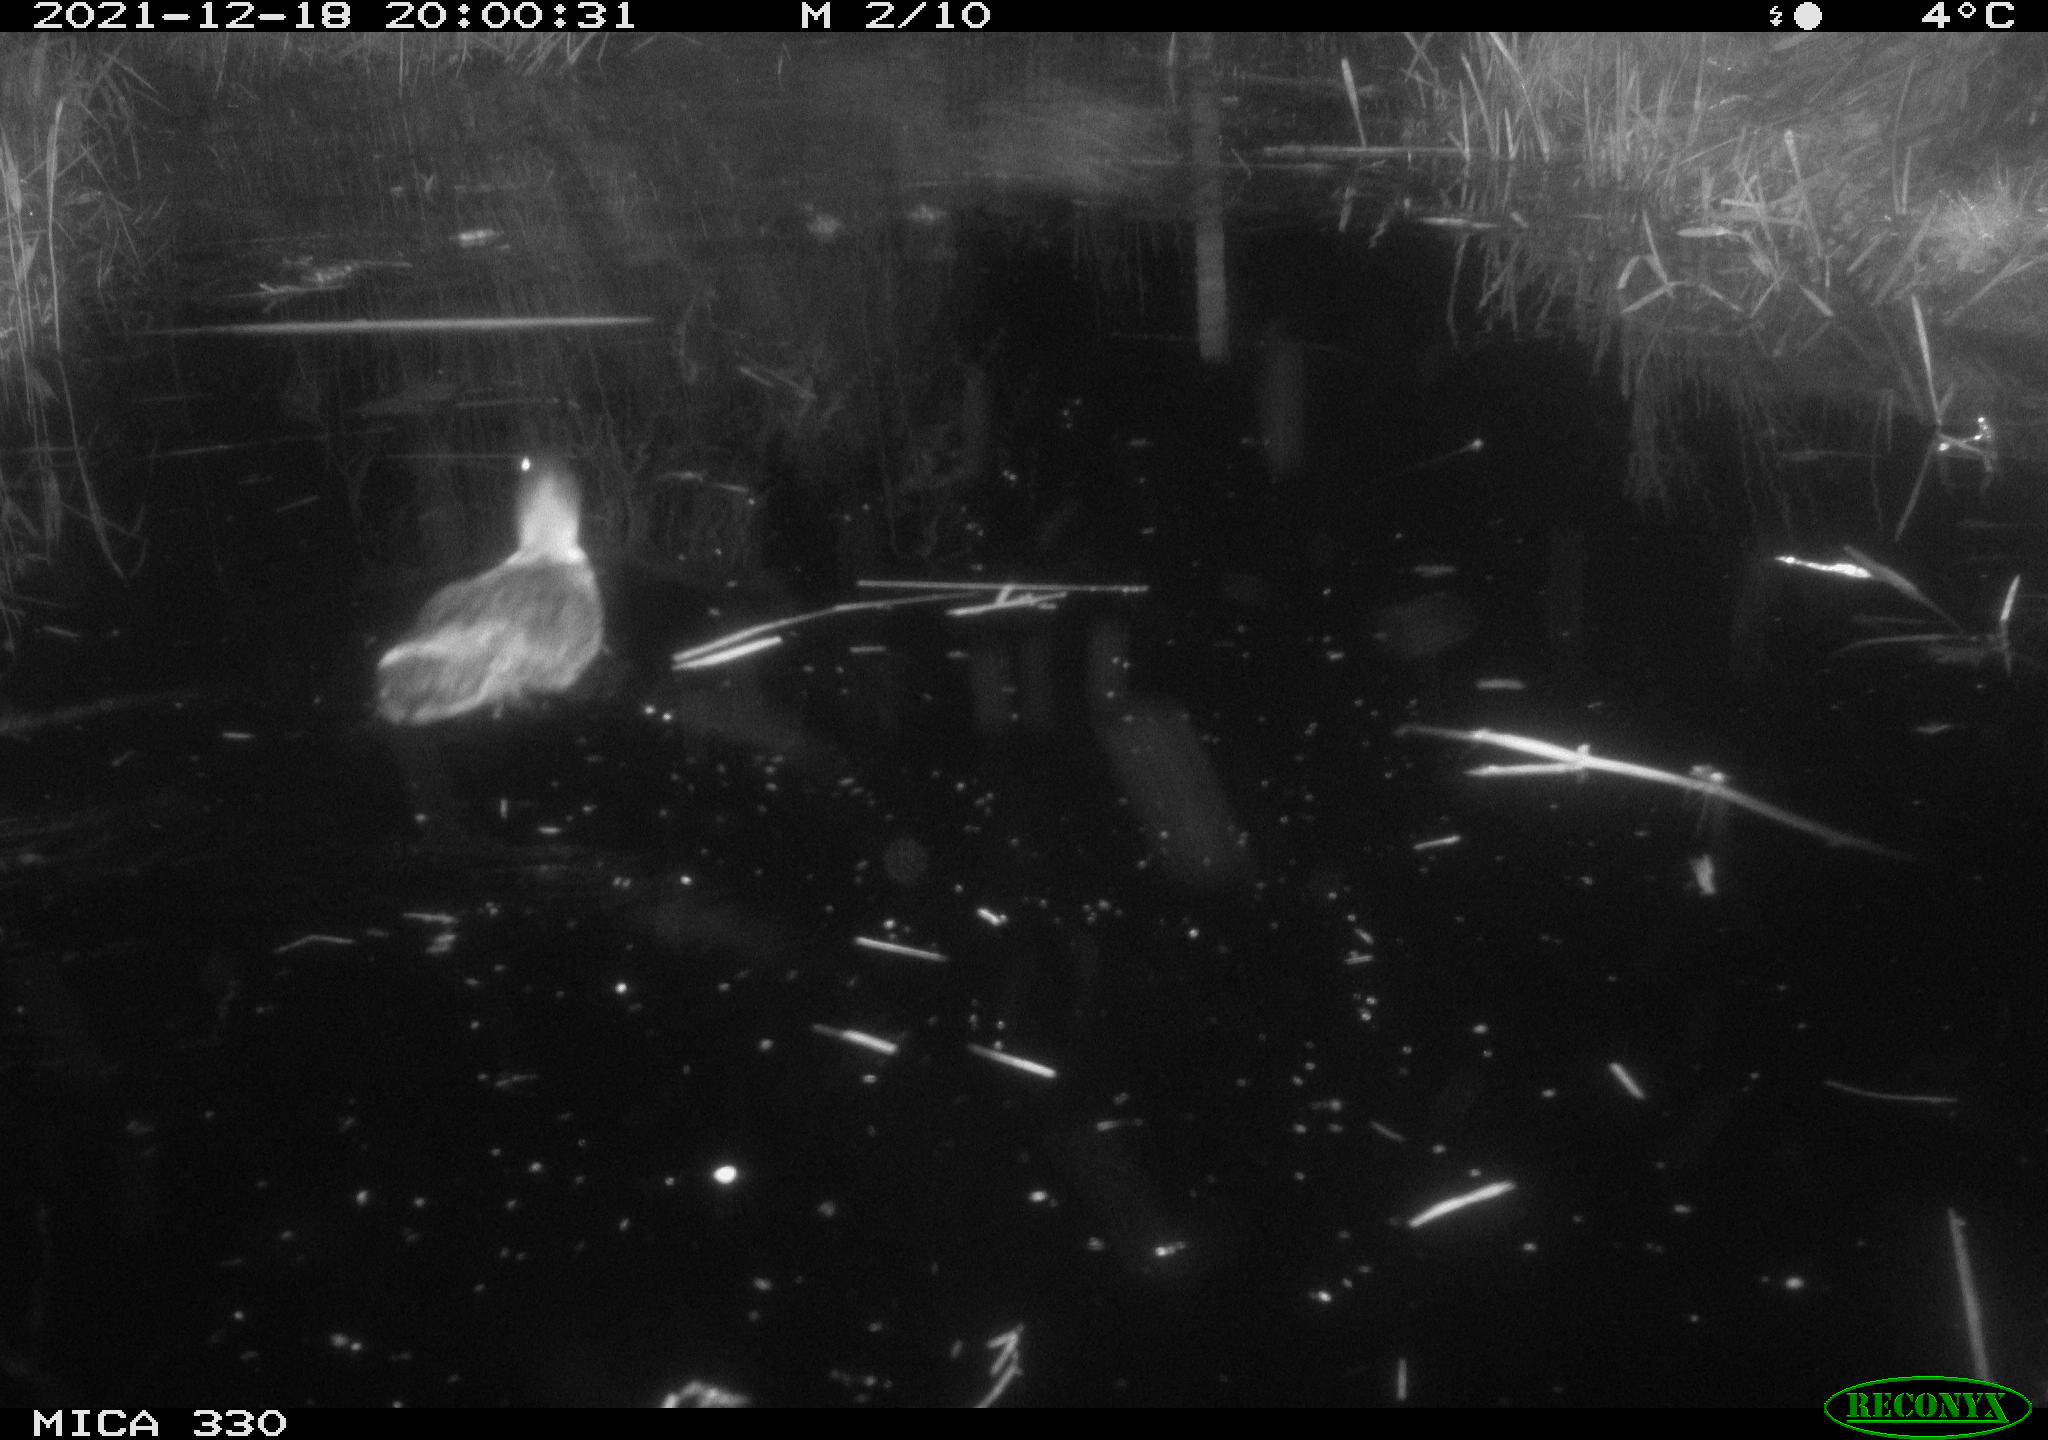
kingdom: Animalia
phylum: Chordata
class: Aves
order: Anseriformes
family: Anatidae
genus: Anas
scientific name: Anas platyrhynchos
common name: Mallard
